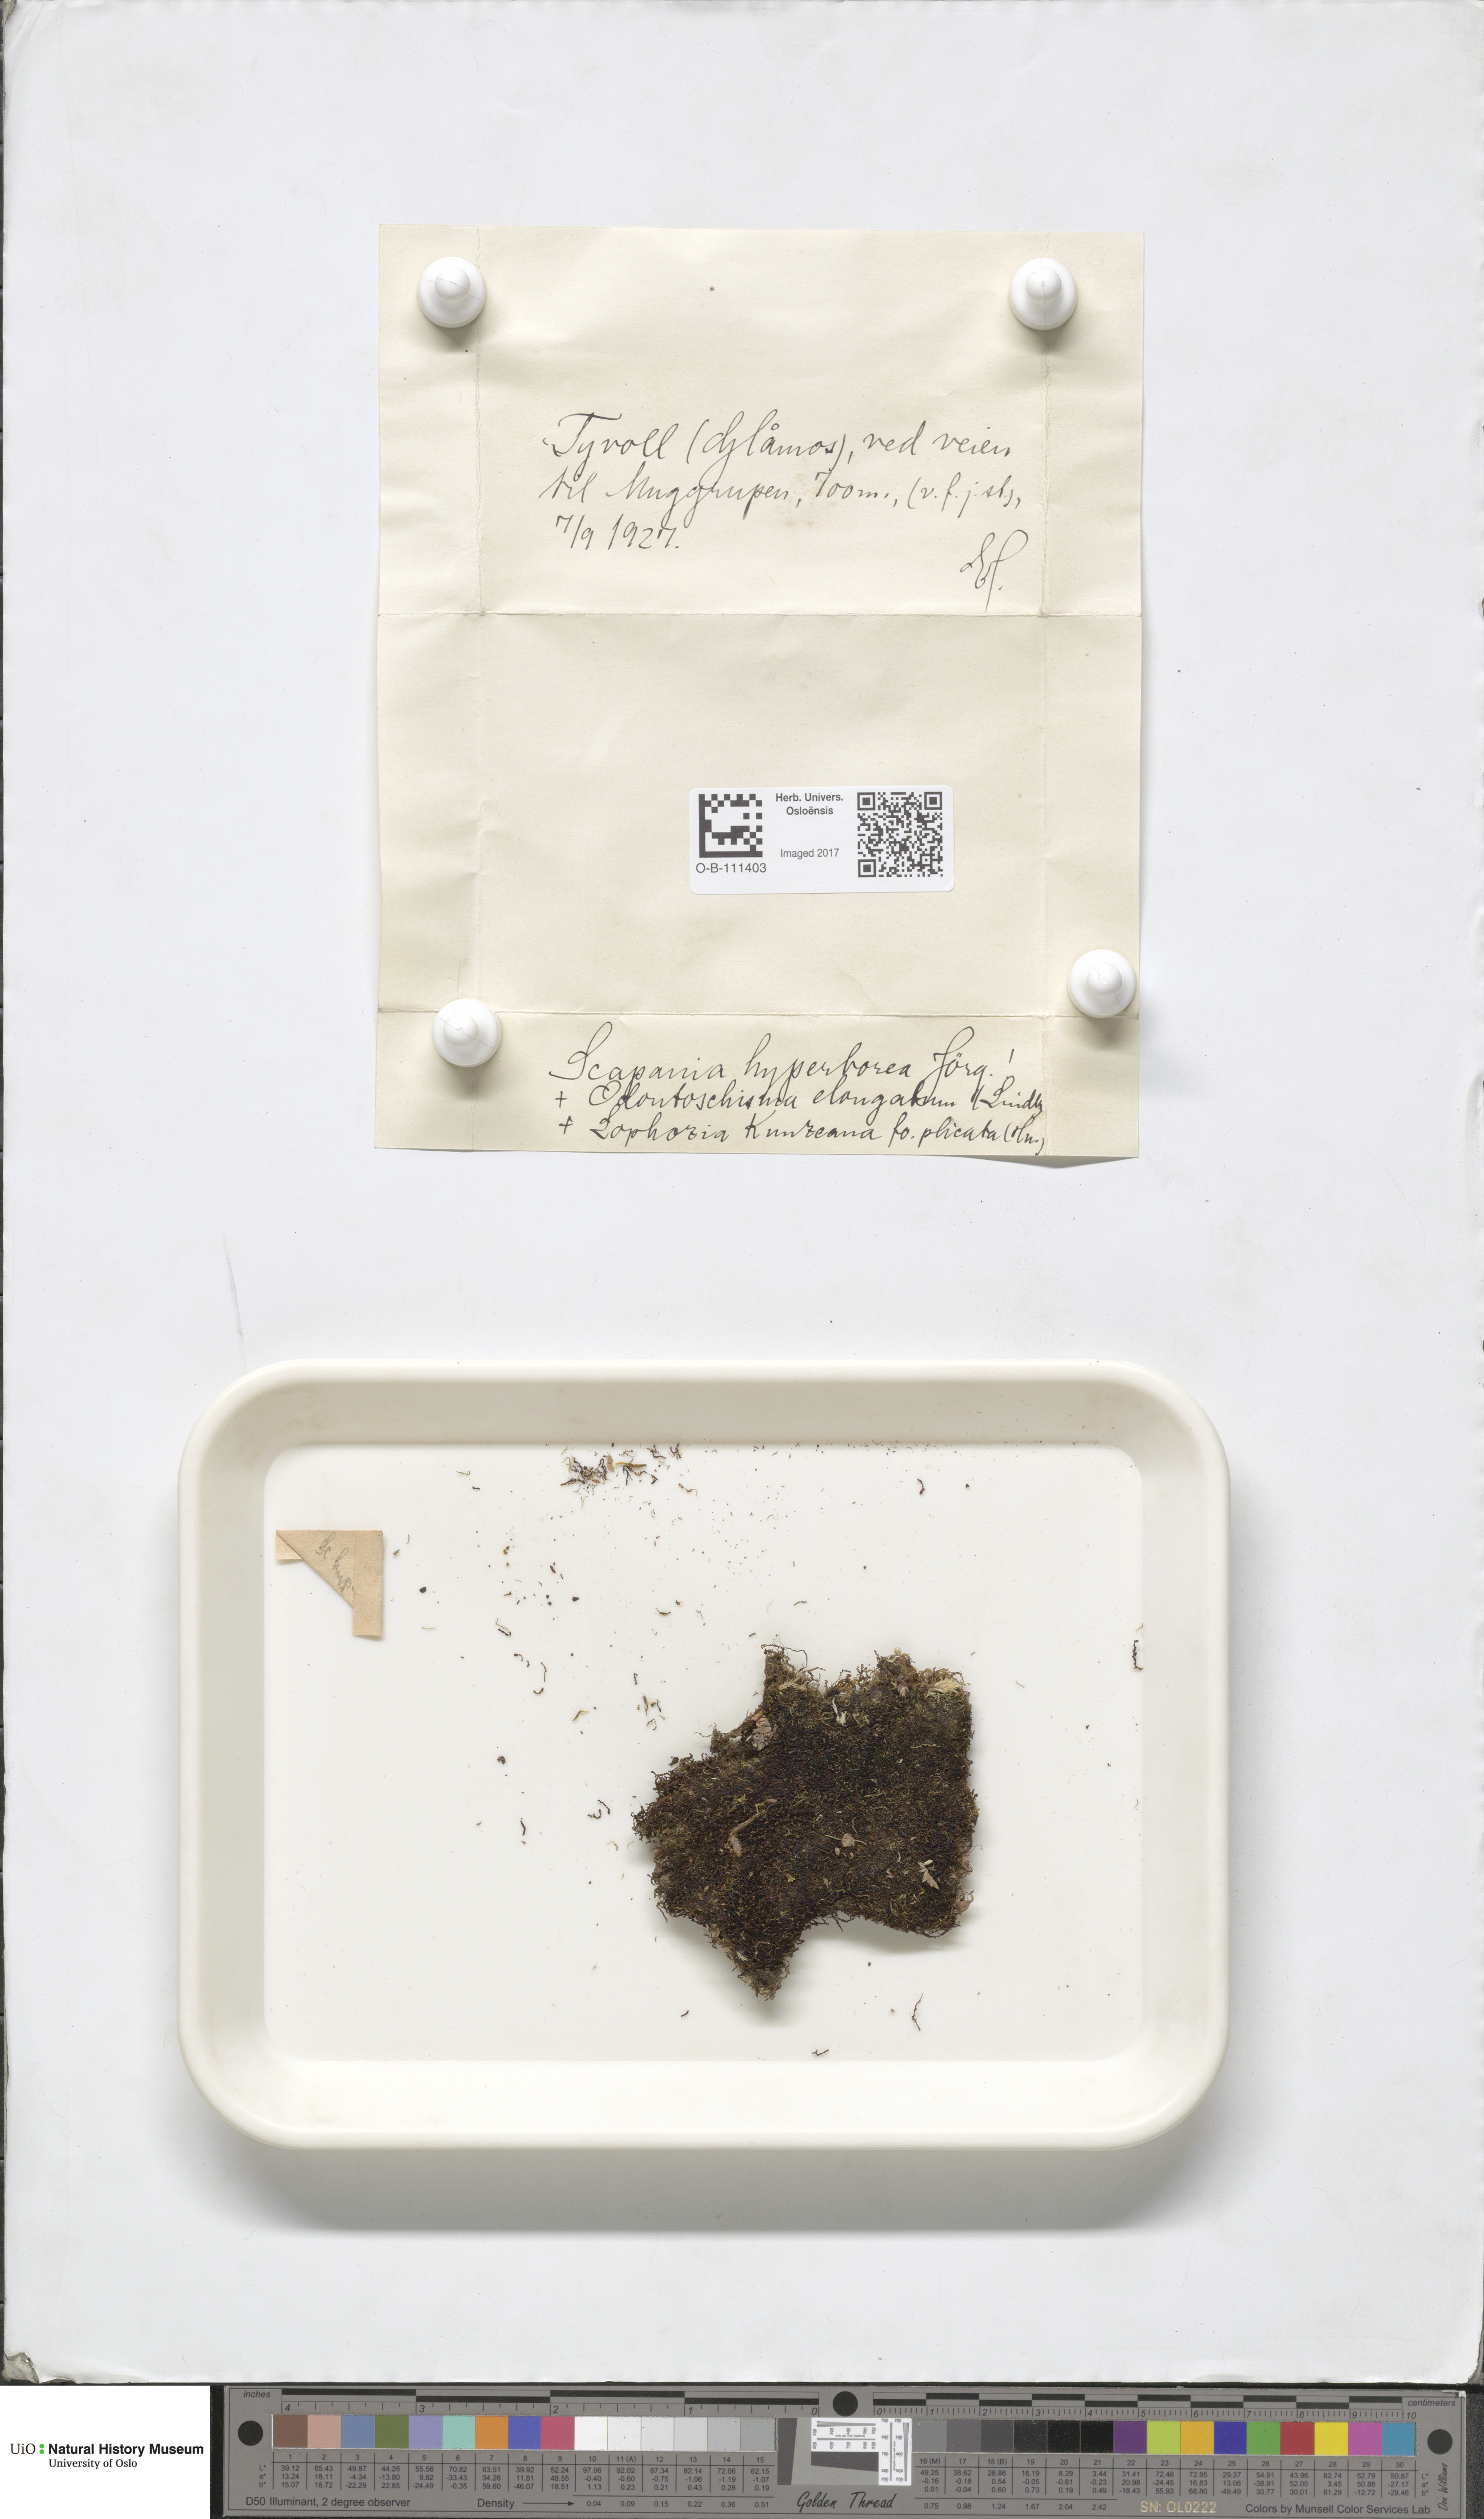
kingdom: Plantae
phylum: Marchantiophyta
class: Jungermanniopsida
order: Jungermanniales
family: Scapaniaceae
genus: Scapania
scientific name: Scapania hyperborea
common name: Northern earwort
